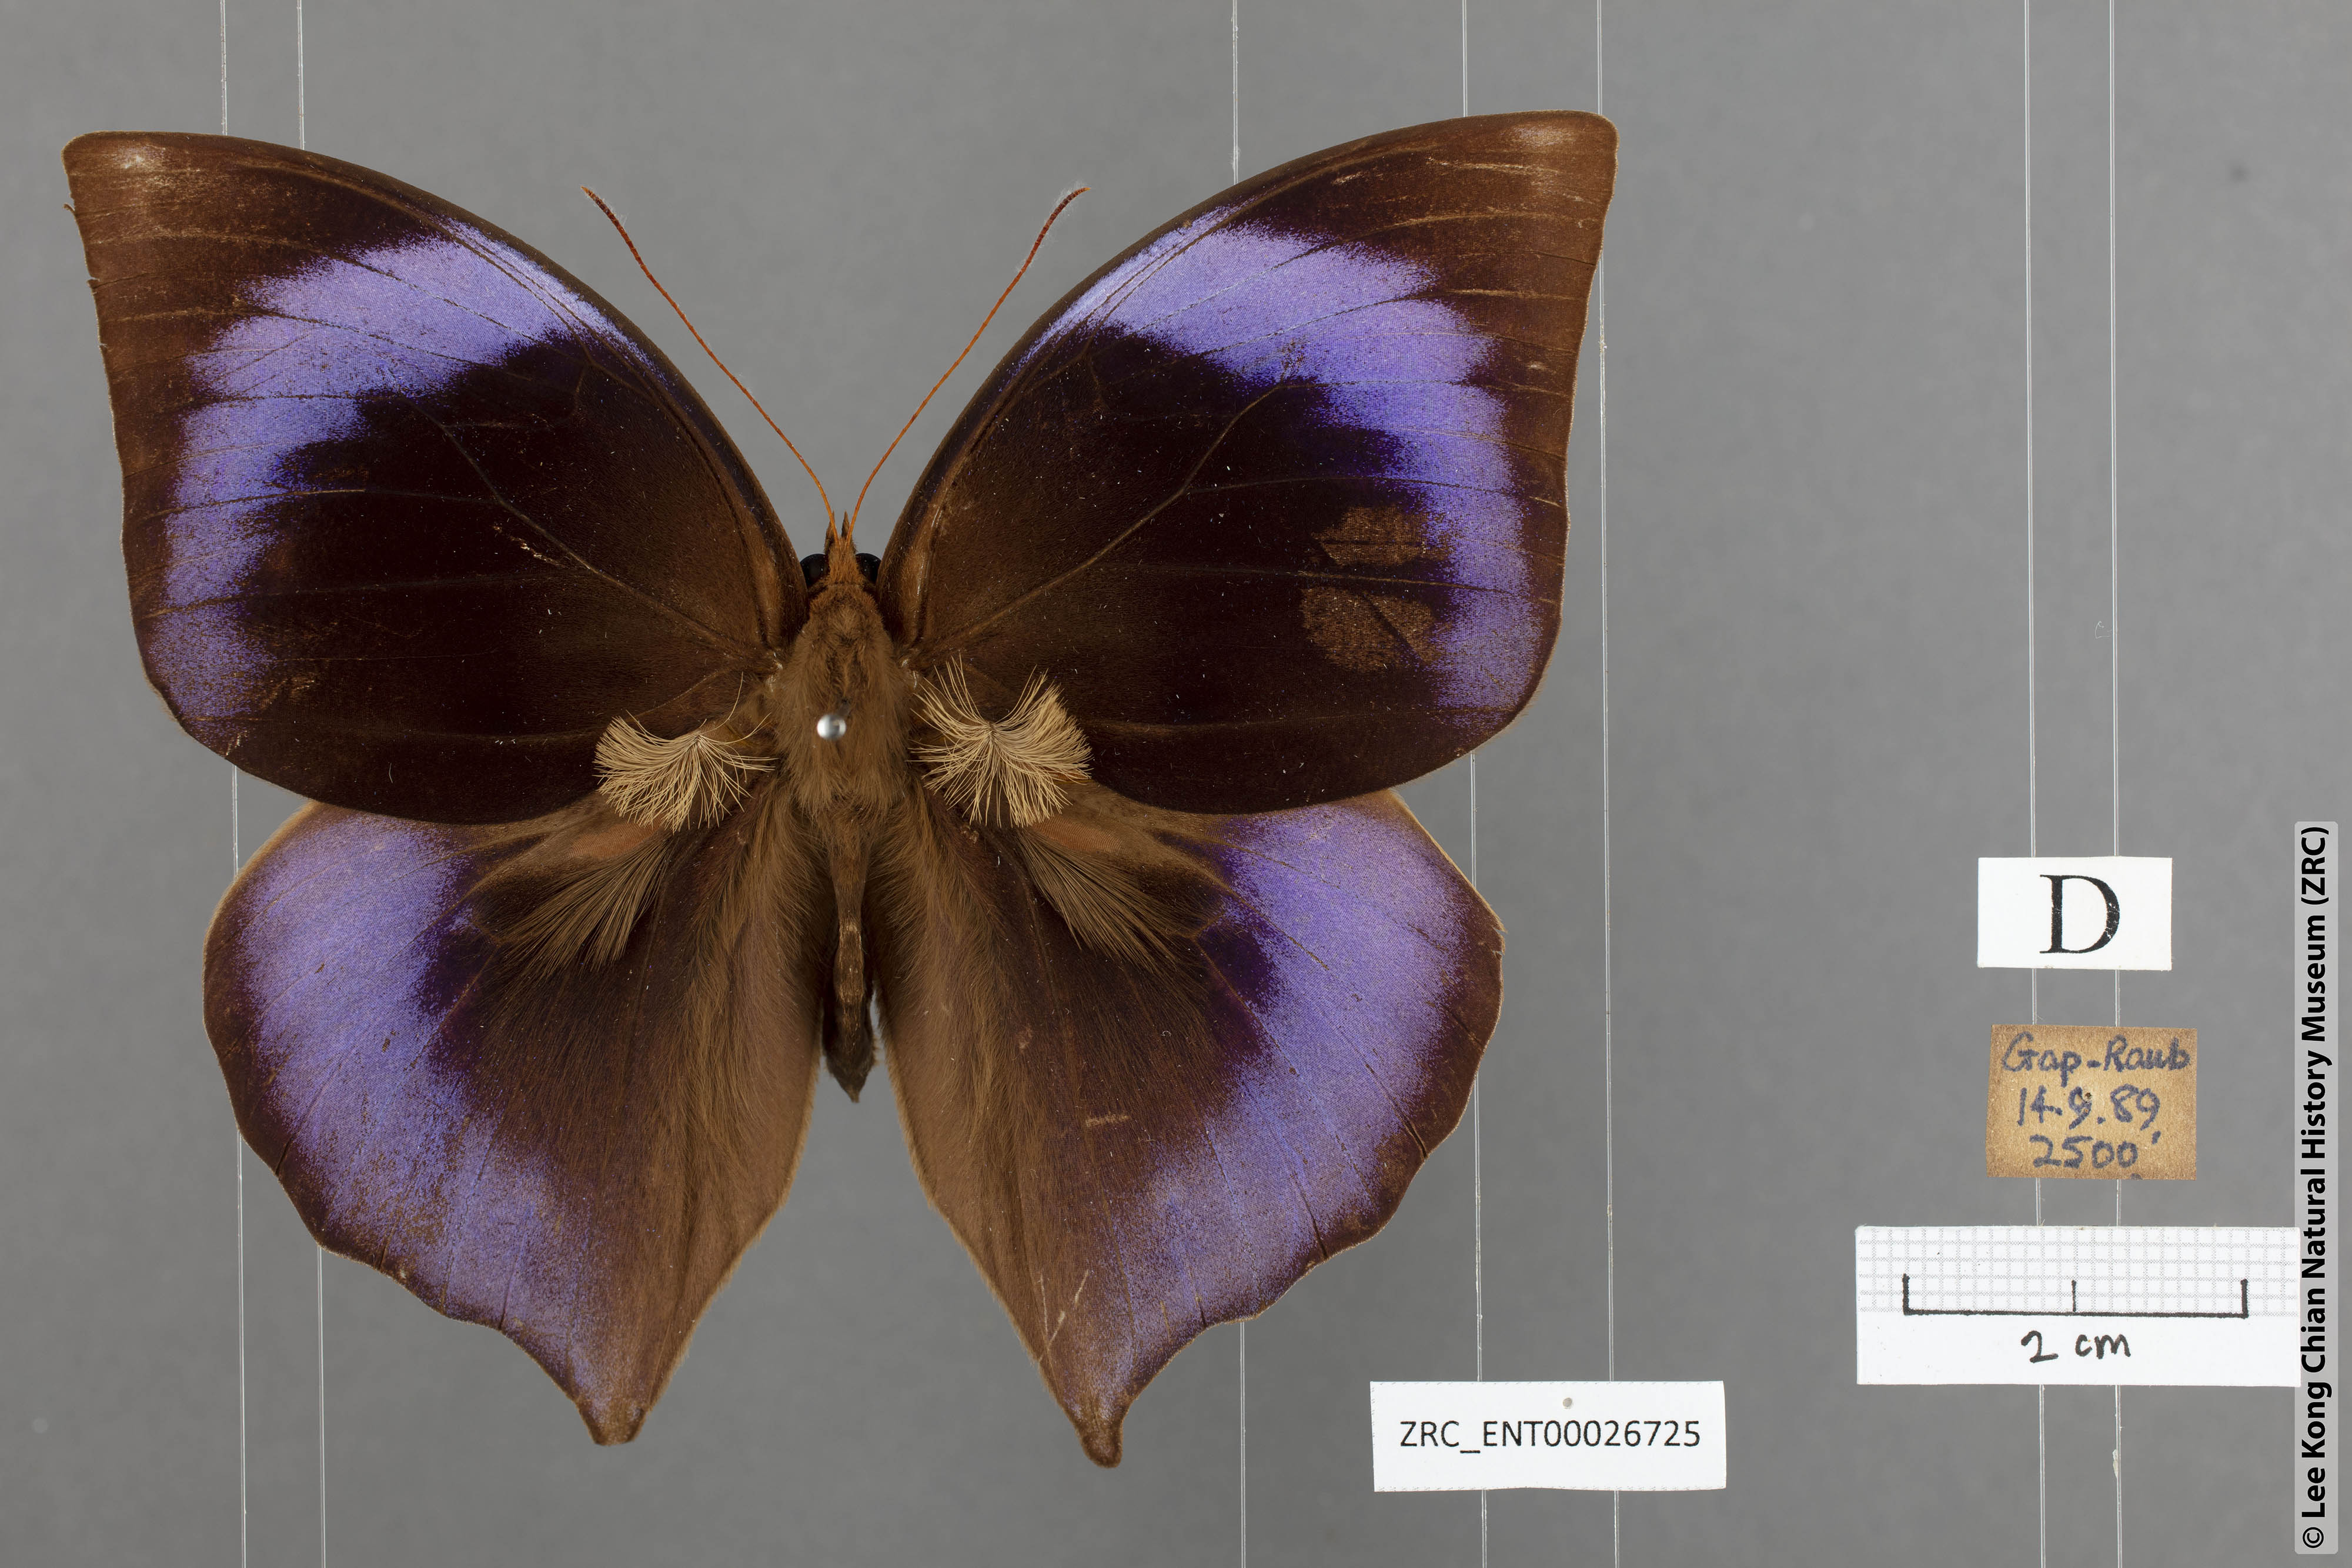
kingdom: Animalia
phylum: Arthropoda
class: Insecta
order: Lepidoptera
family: Nymphalidae
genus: Zeuxidia
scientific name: Zeuxidia doubledaii
